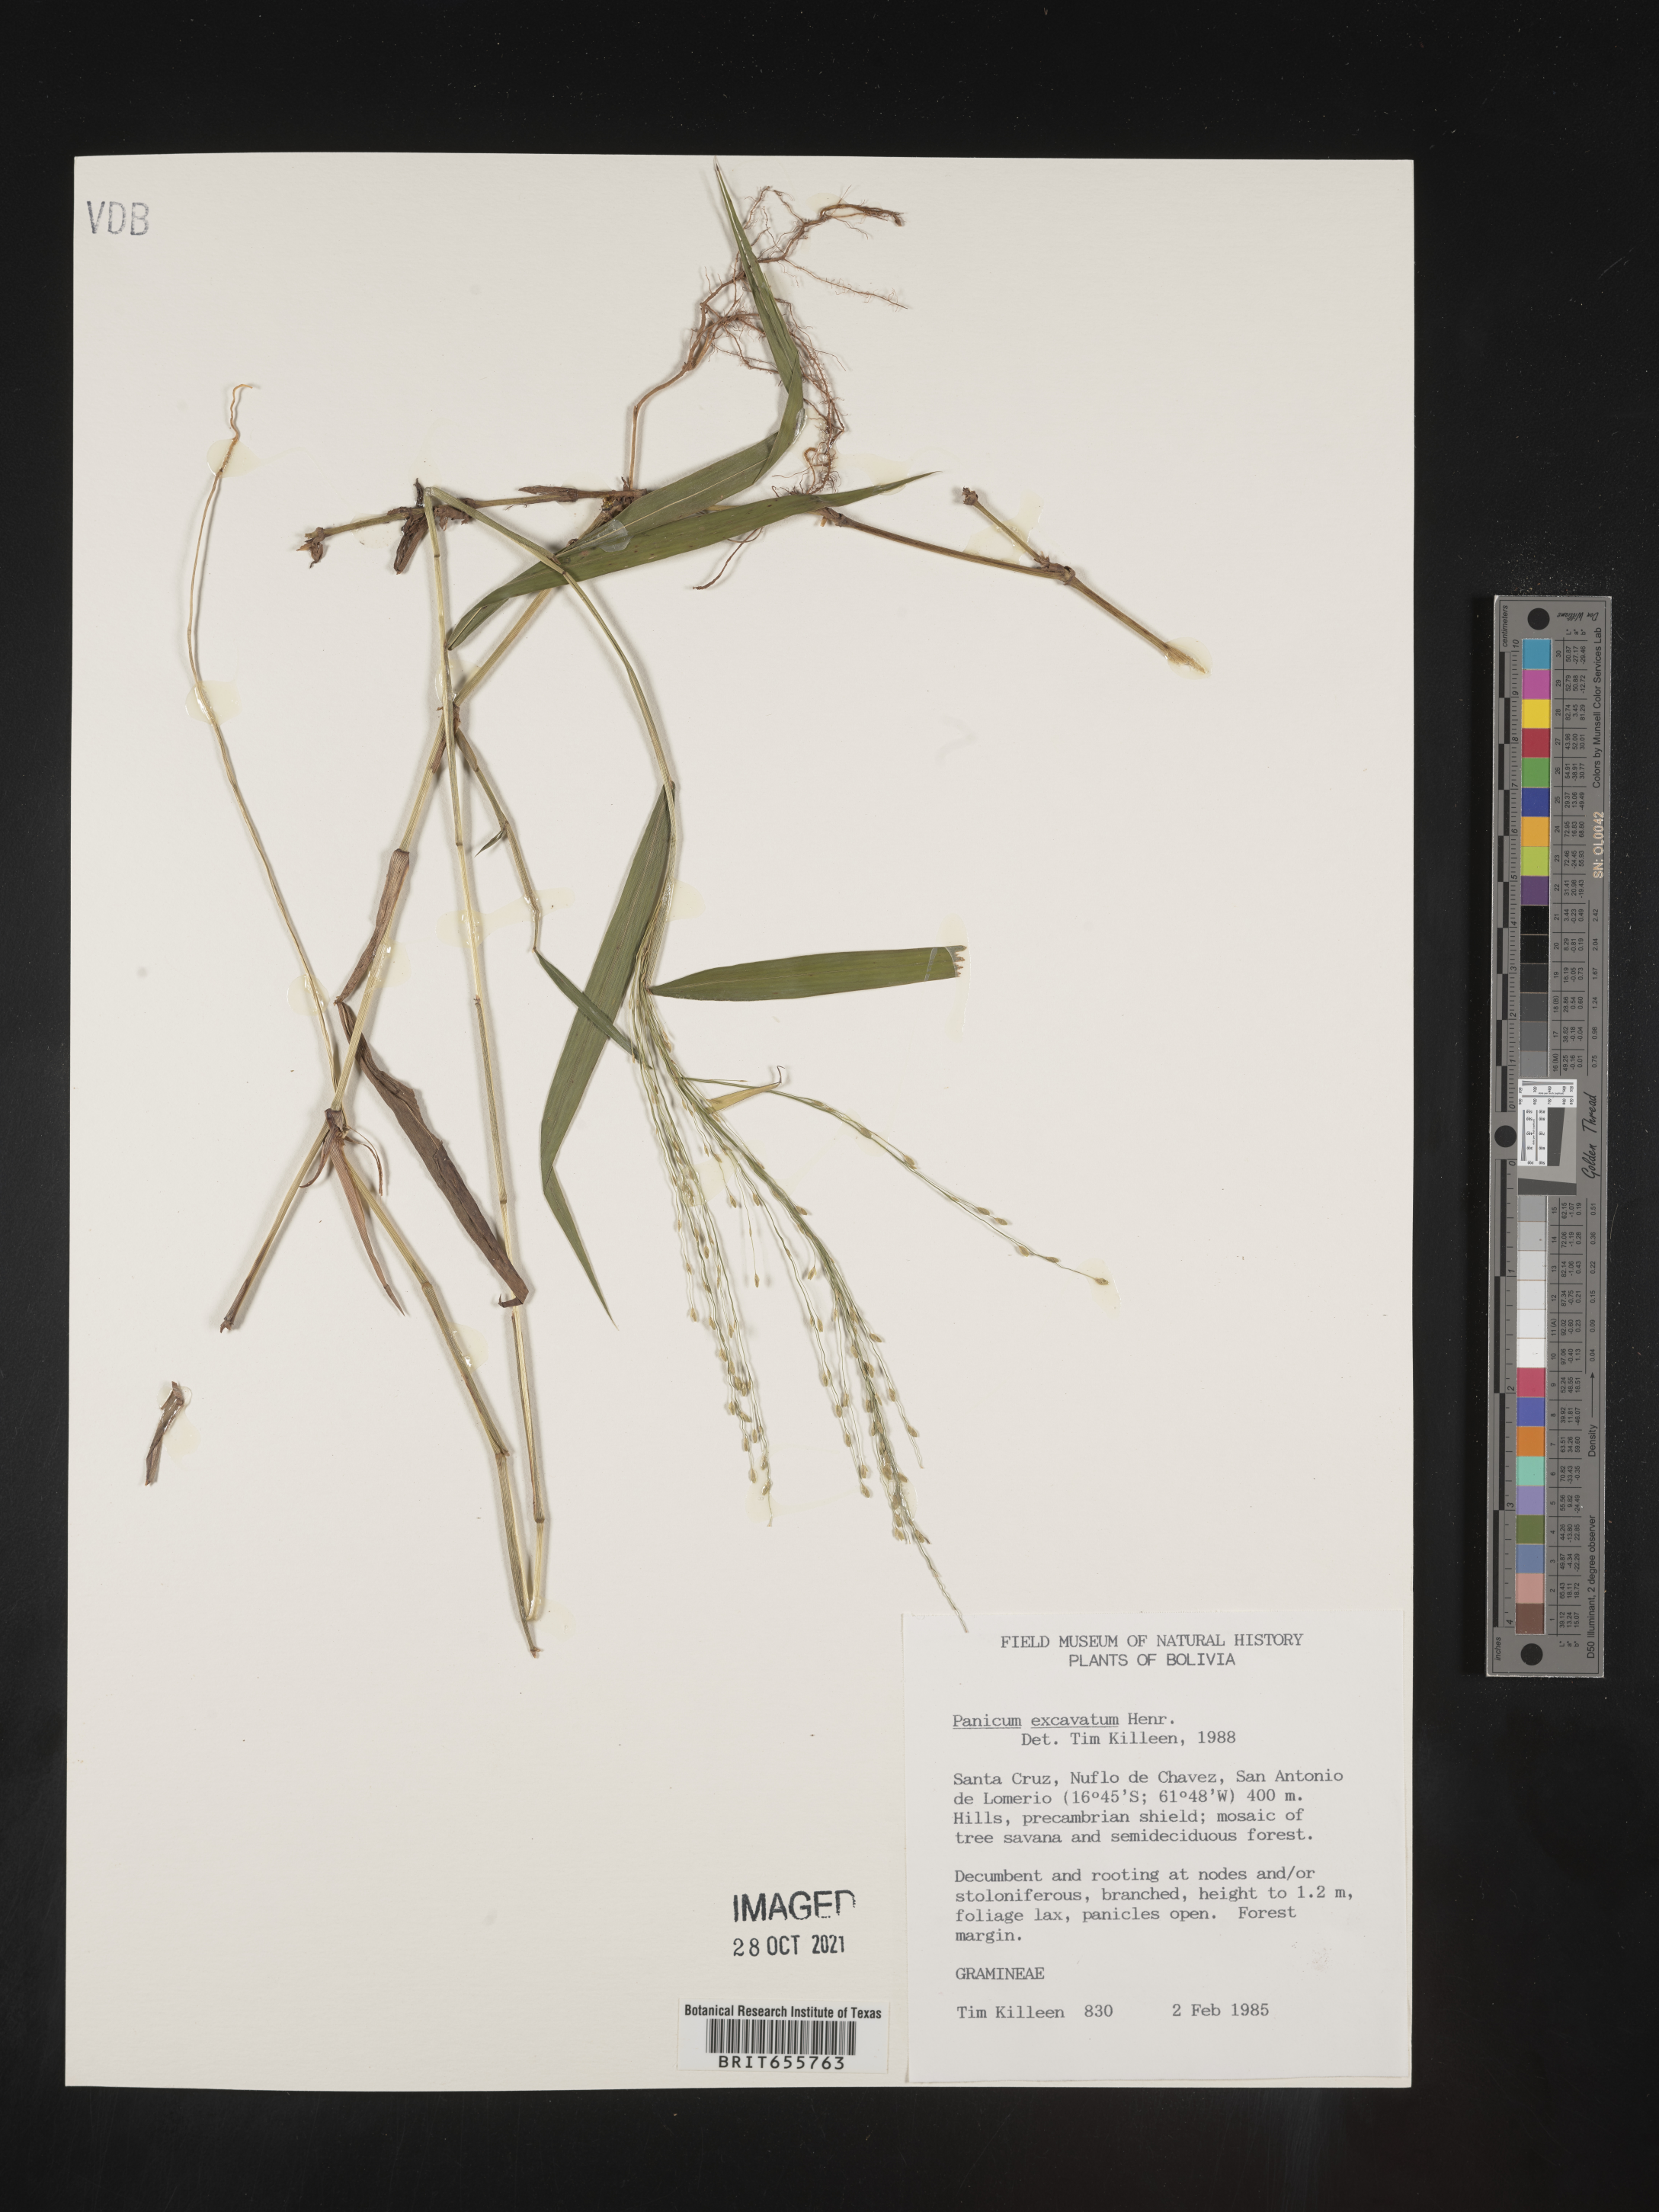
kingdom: Plantae
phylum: Tracheophyta
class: Liliopsida
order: Poales
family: Poaceae
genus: Panicum
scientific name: Panicum
